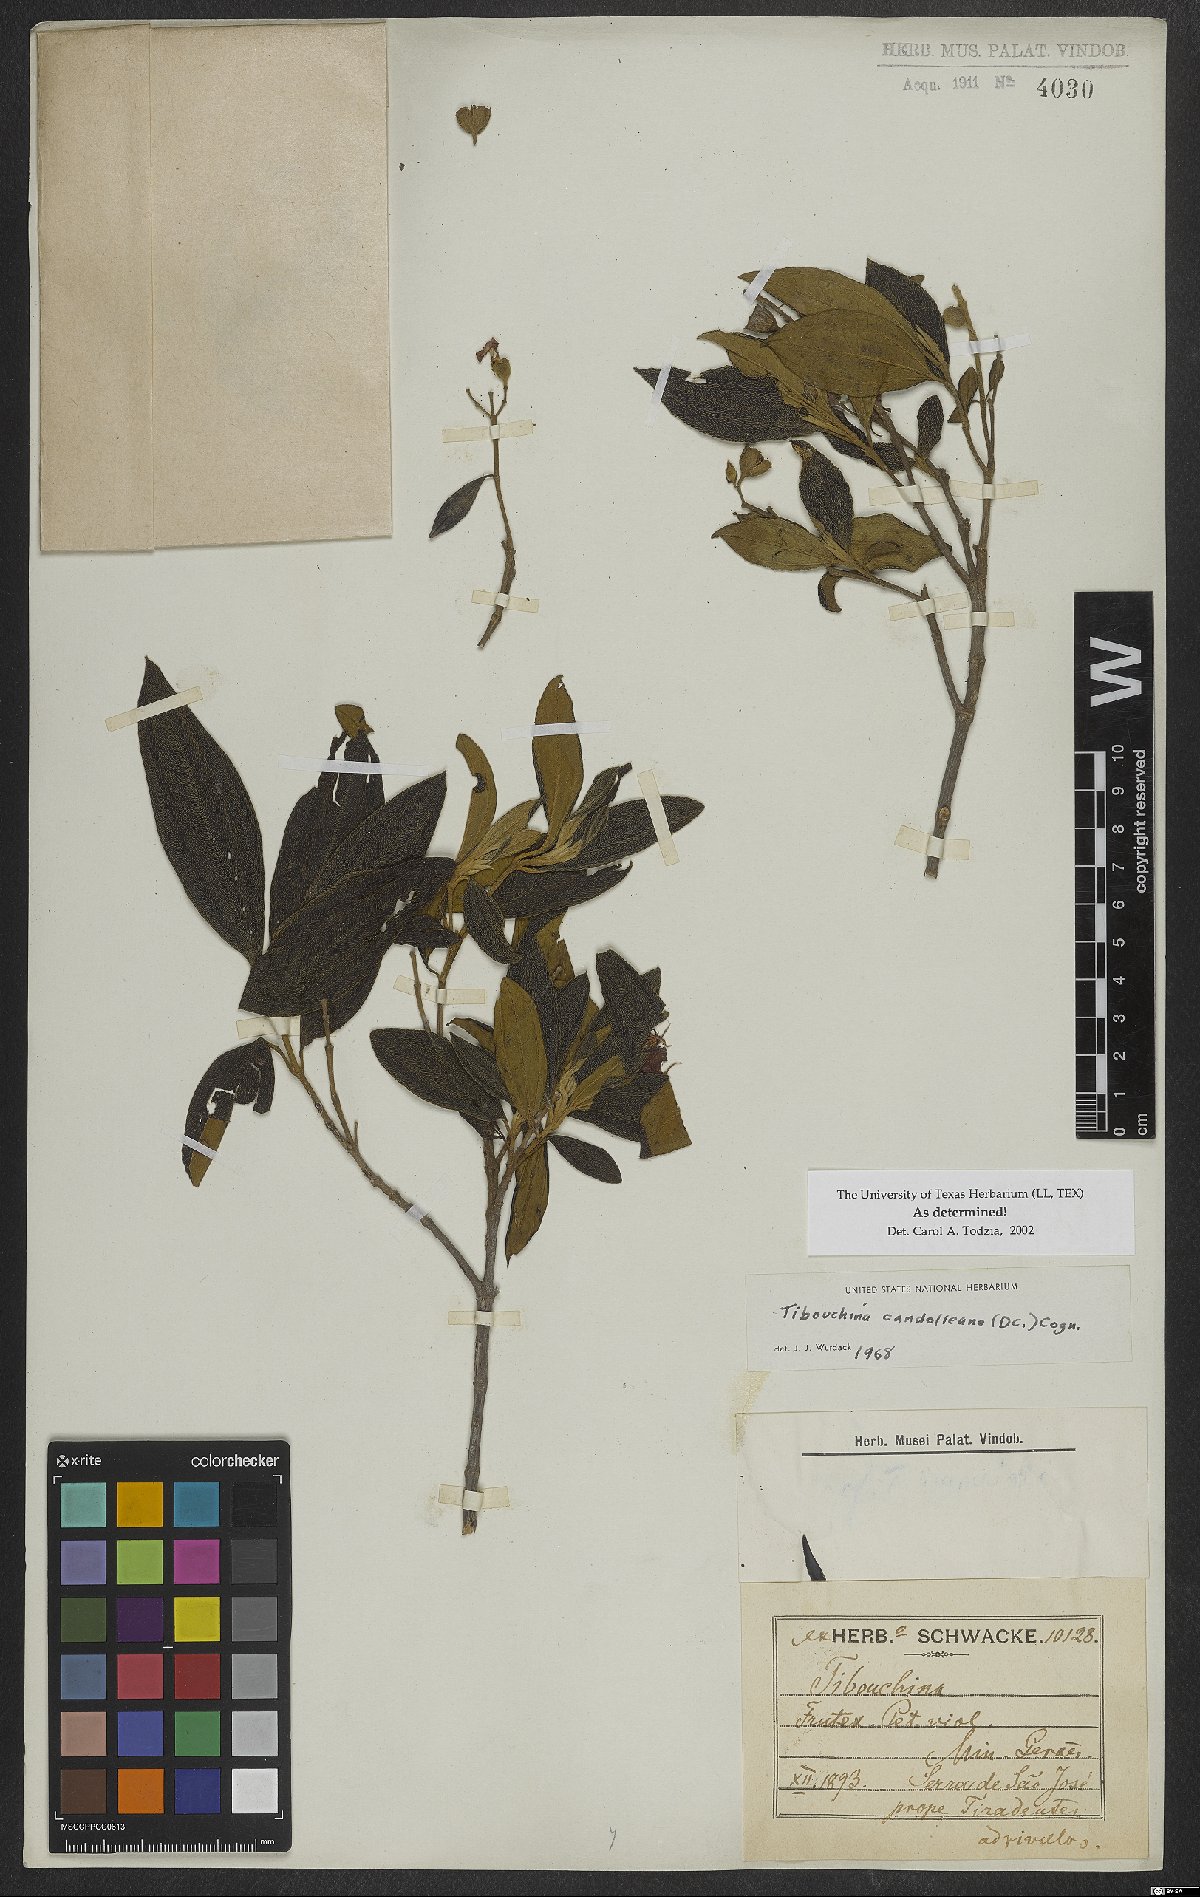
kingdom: Plantae
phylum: Tracheophyta
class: Magnoliopsida
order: Myrtales
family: Melastomataceae
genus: Pleroma
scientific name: Pleroma candolleanum
